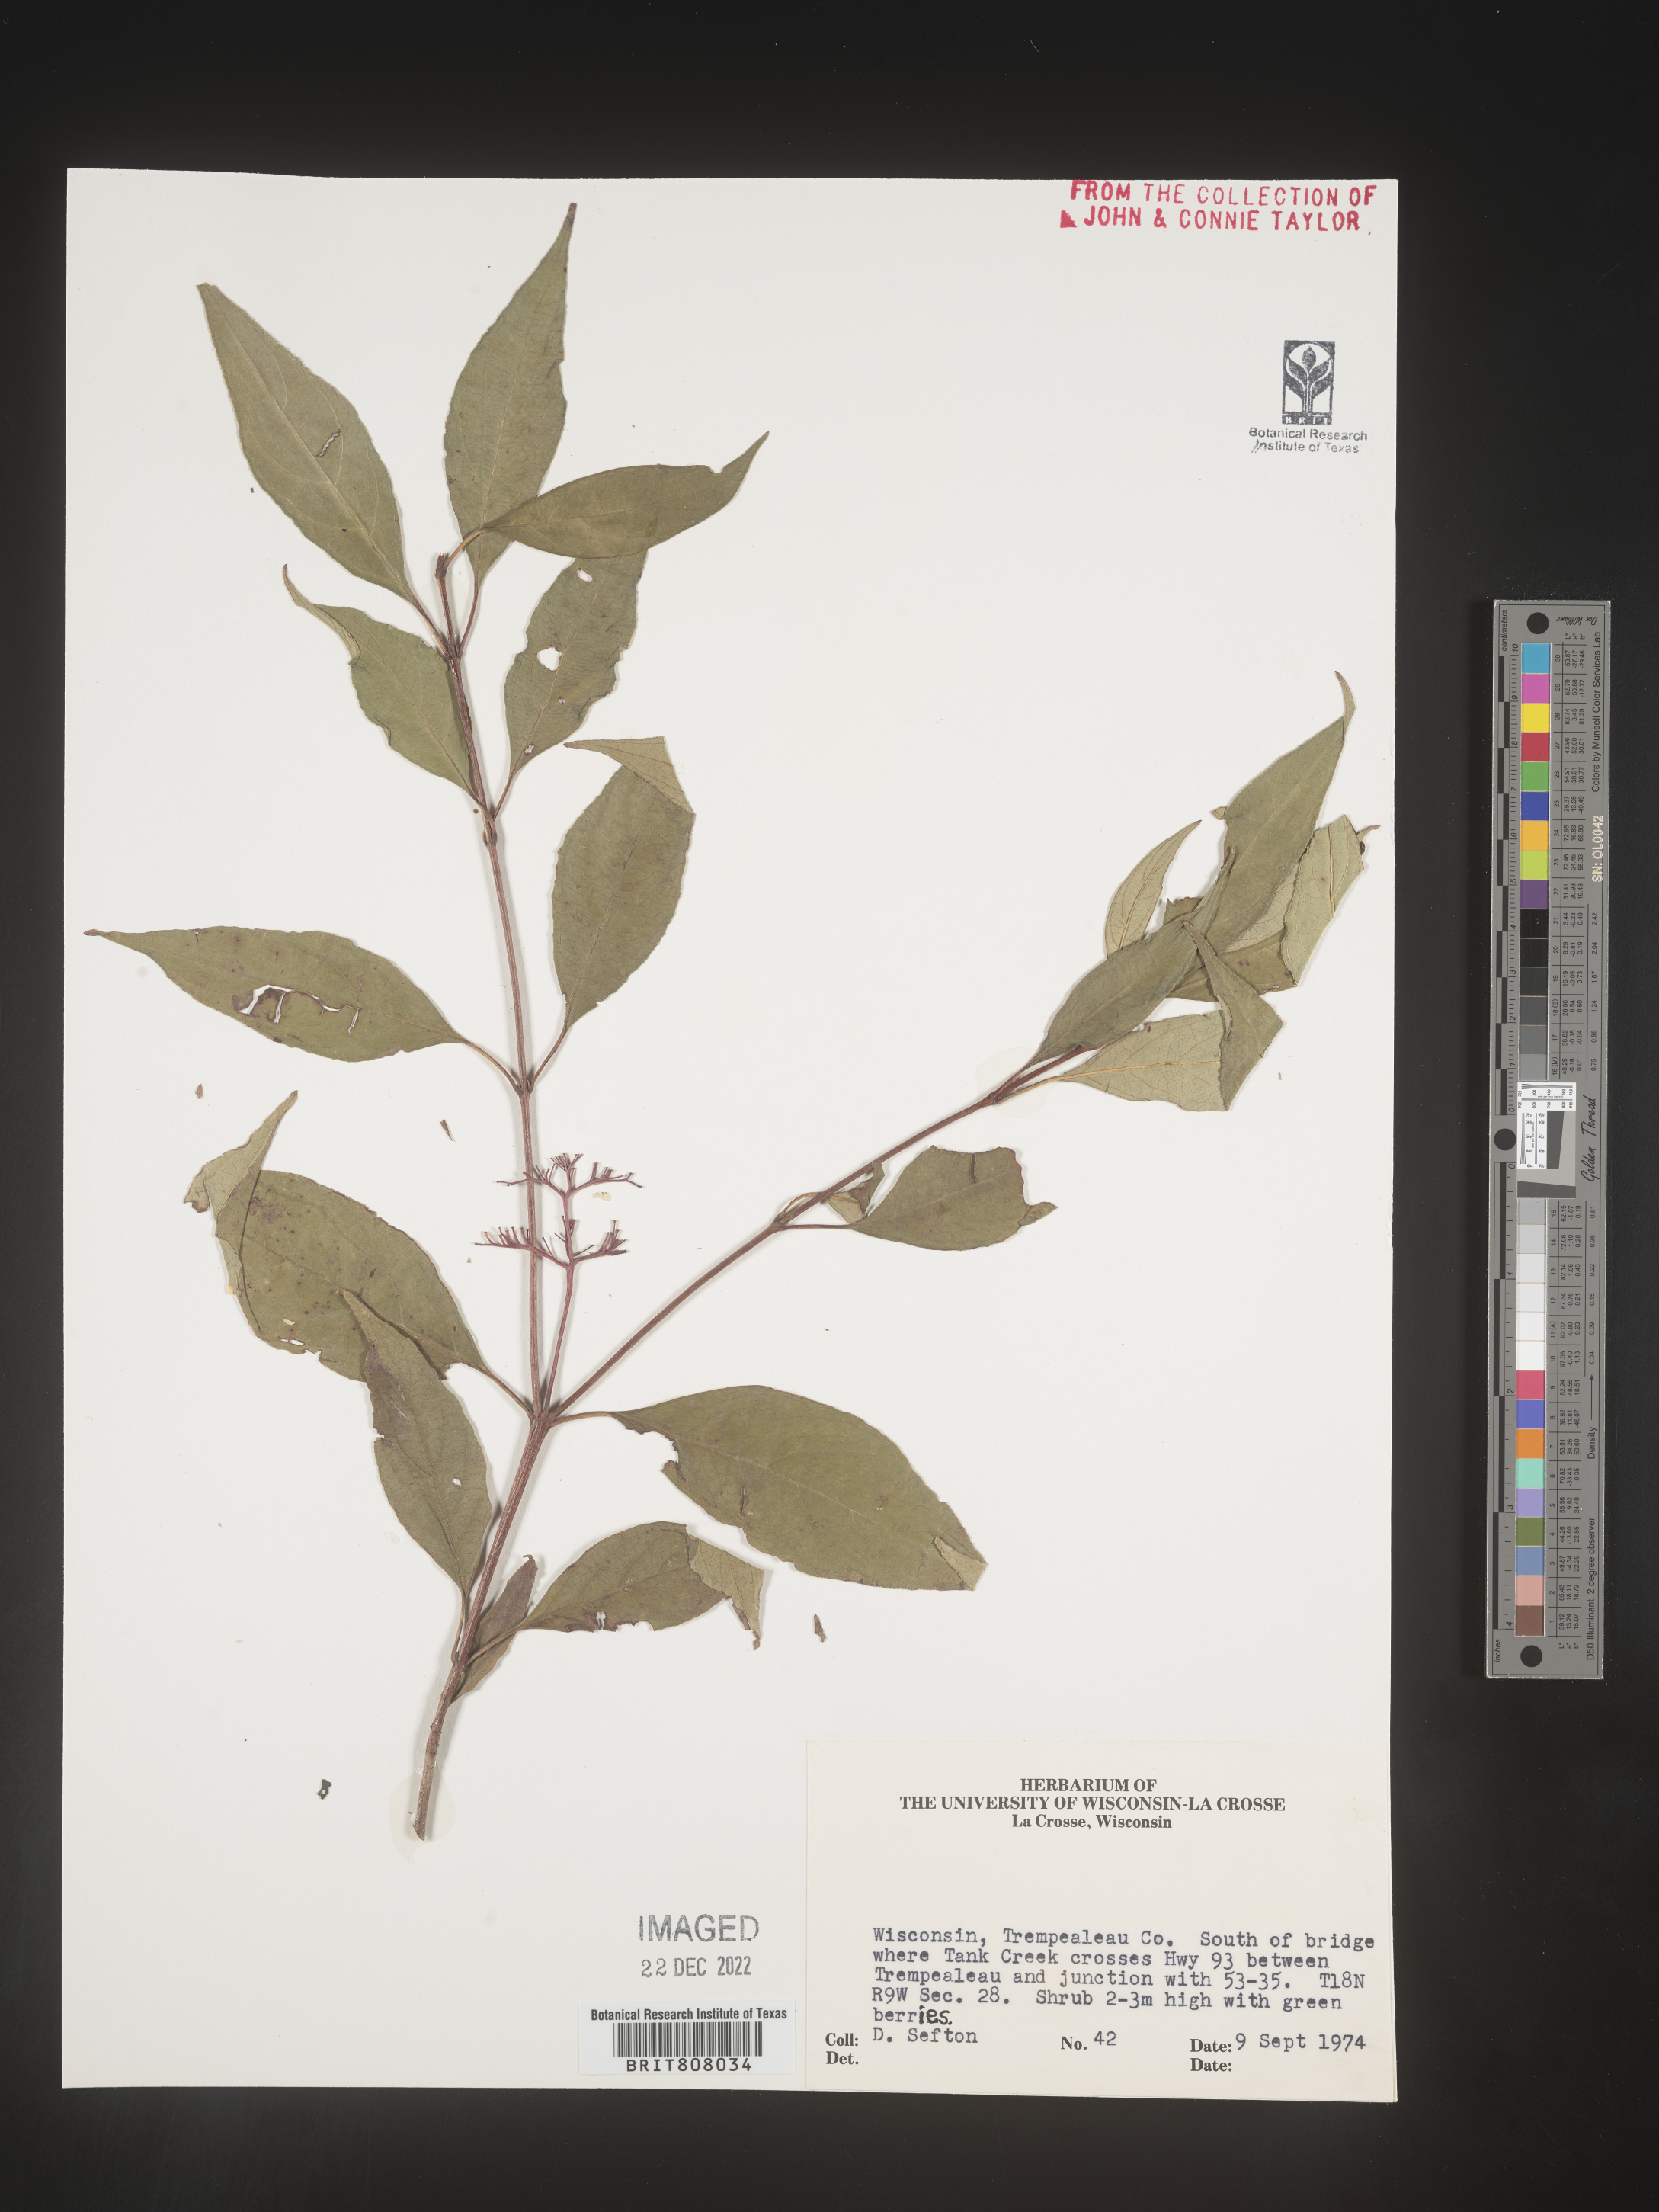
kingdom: Plantae
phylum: Tracheophyta
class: Magnoliopsida
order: Cornales
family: Cornaceae
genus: Cornus
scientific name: Cornus
